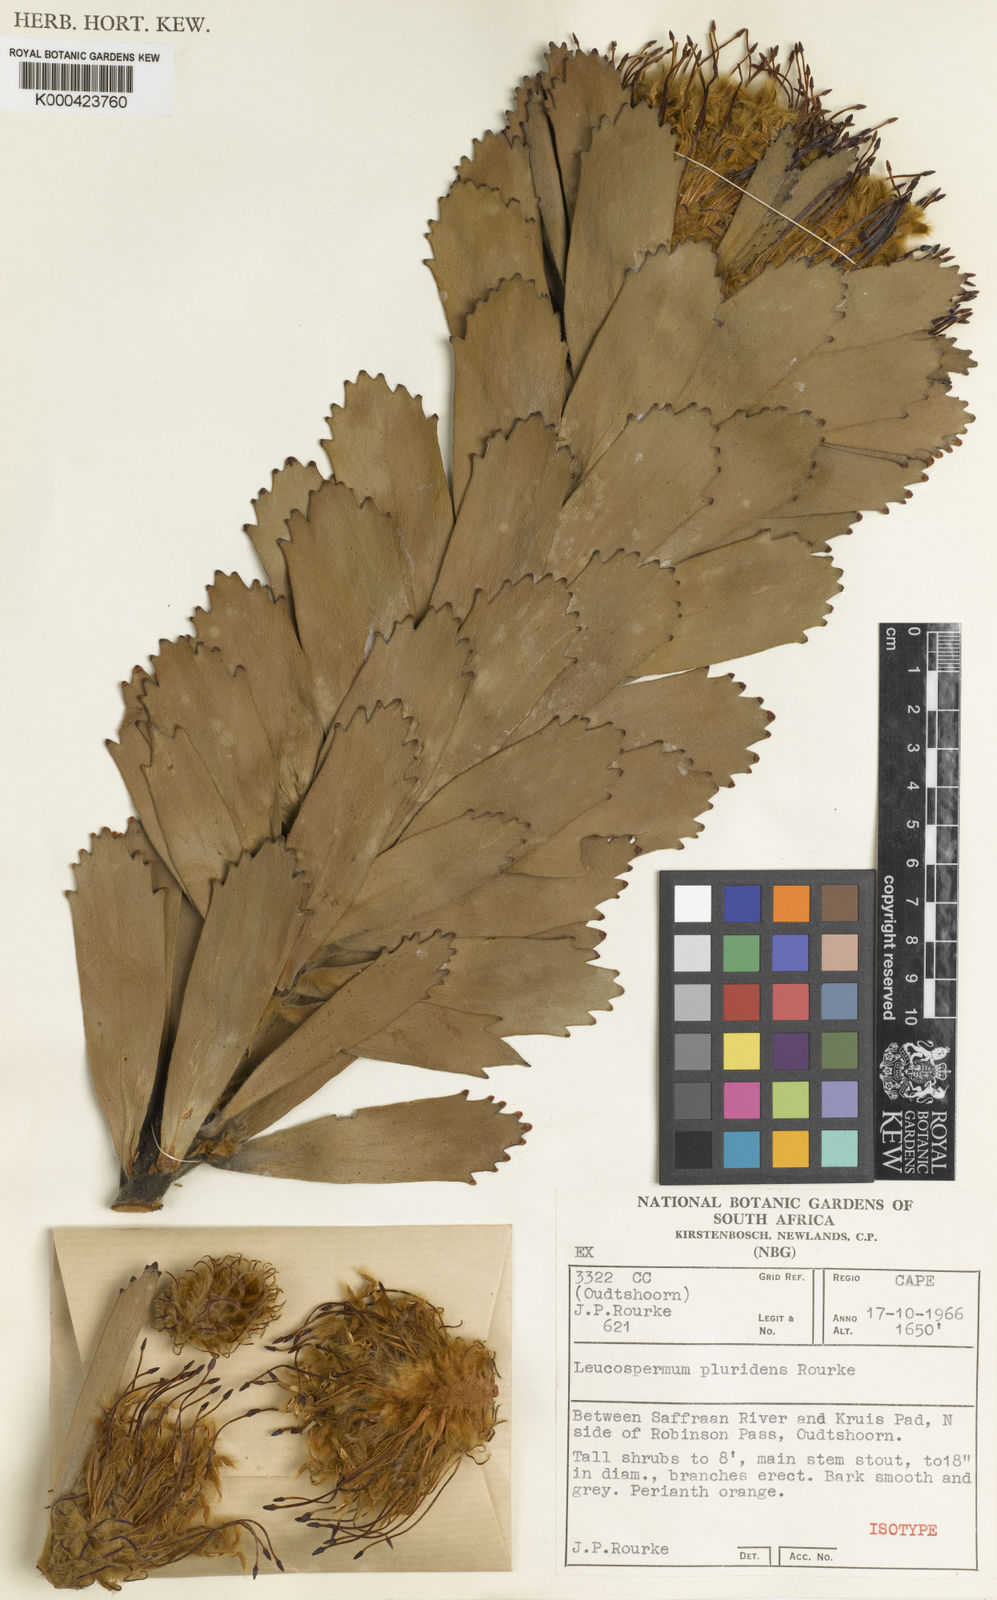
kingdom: Plantae
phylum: Tracheophyta
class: Magnoliopsida
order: Proteales
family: Proteaceae
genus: Leucospermum
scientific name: Leucospermum pluridens
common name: Robinson pincushion
